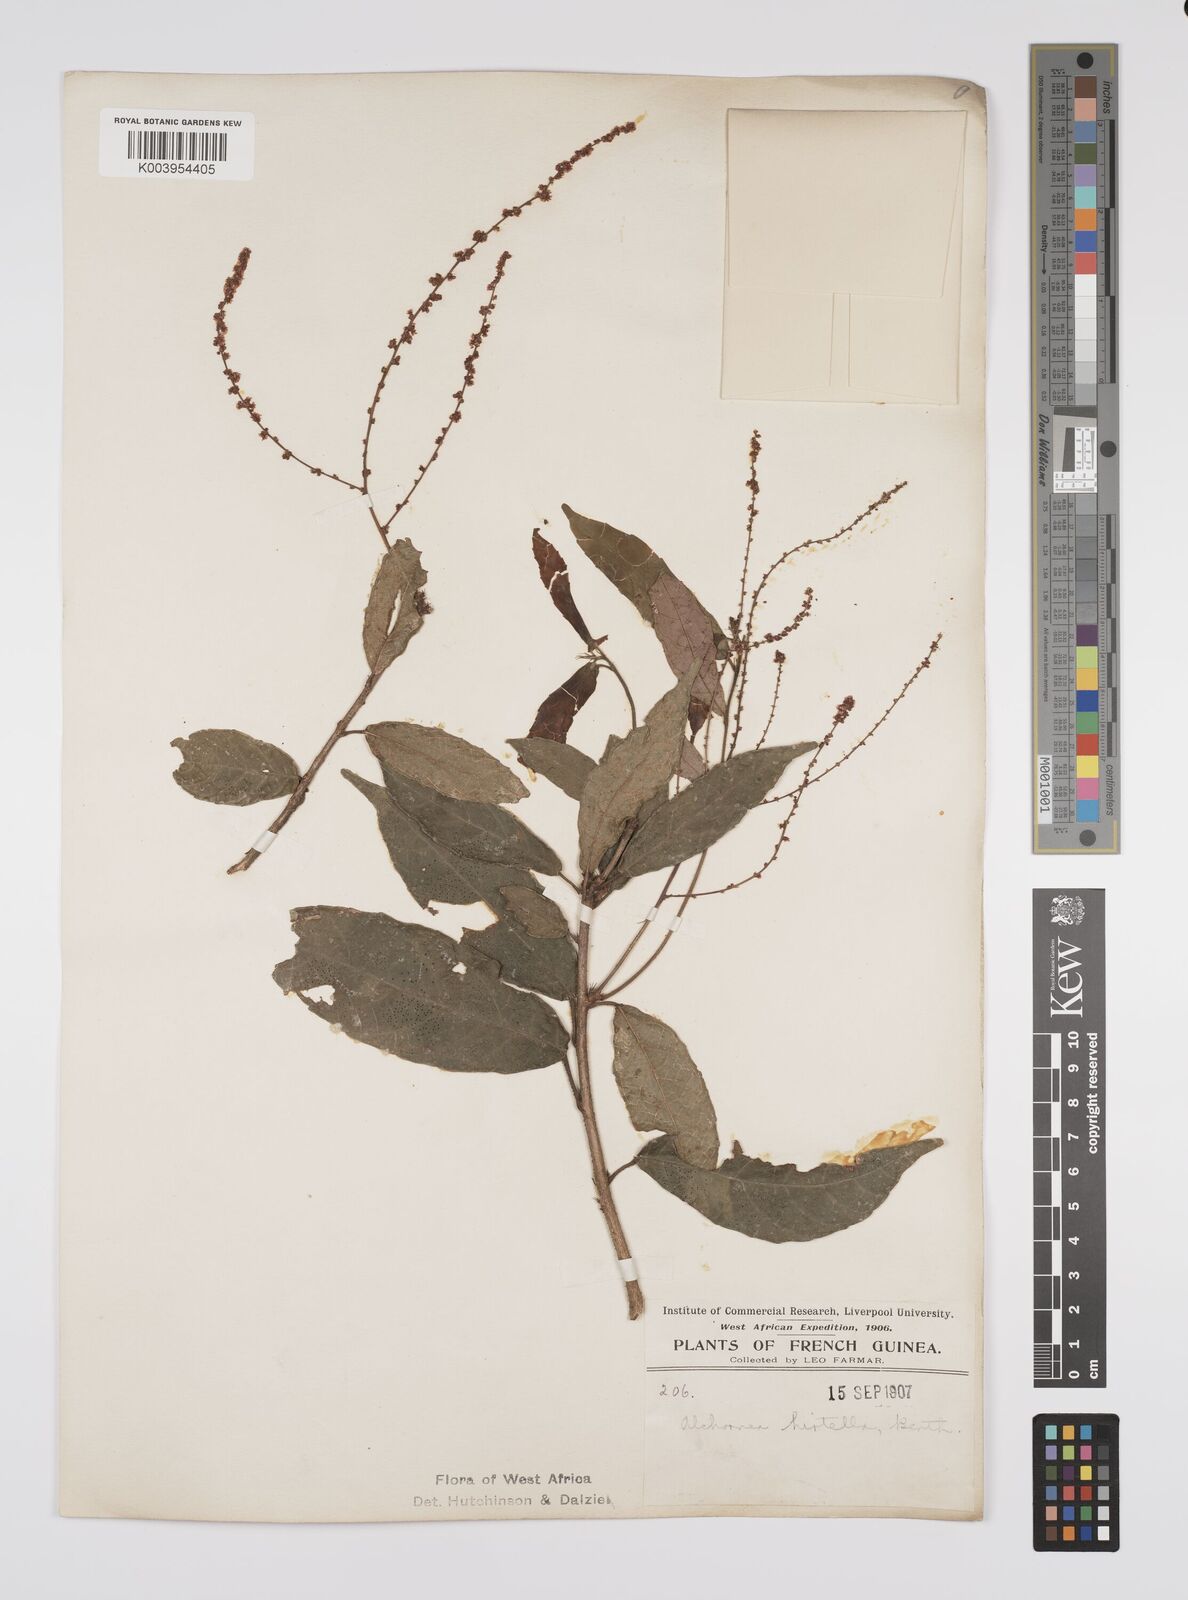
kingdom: Plantae
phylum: Tracheophyta
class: Magnoliopsida
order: Malpighiales
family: Euphorbiaceae
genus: Alchornea
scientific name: Alchornea hirtella
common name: Forest bead-string
